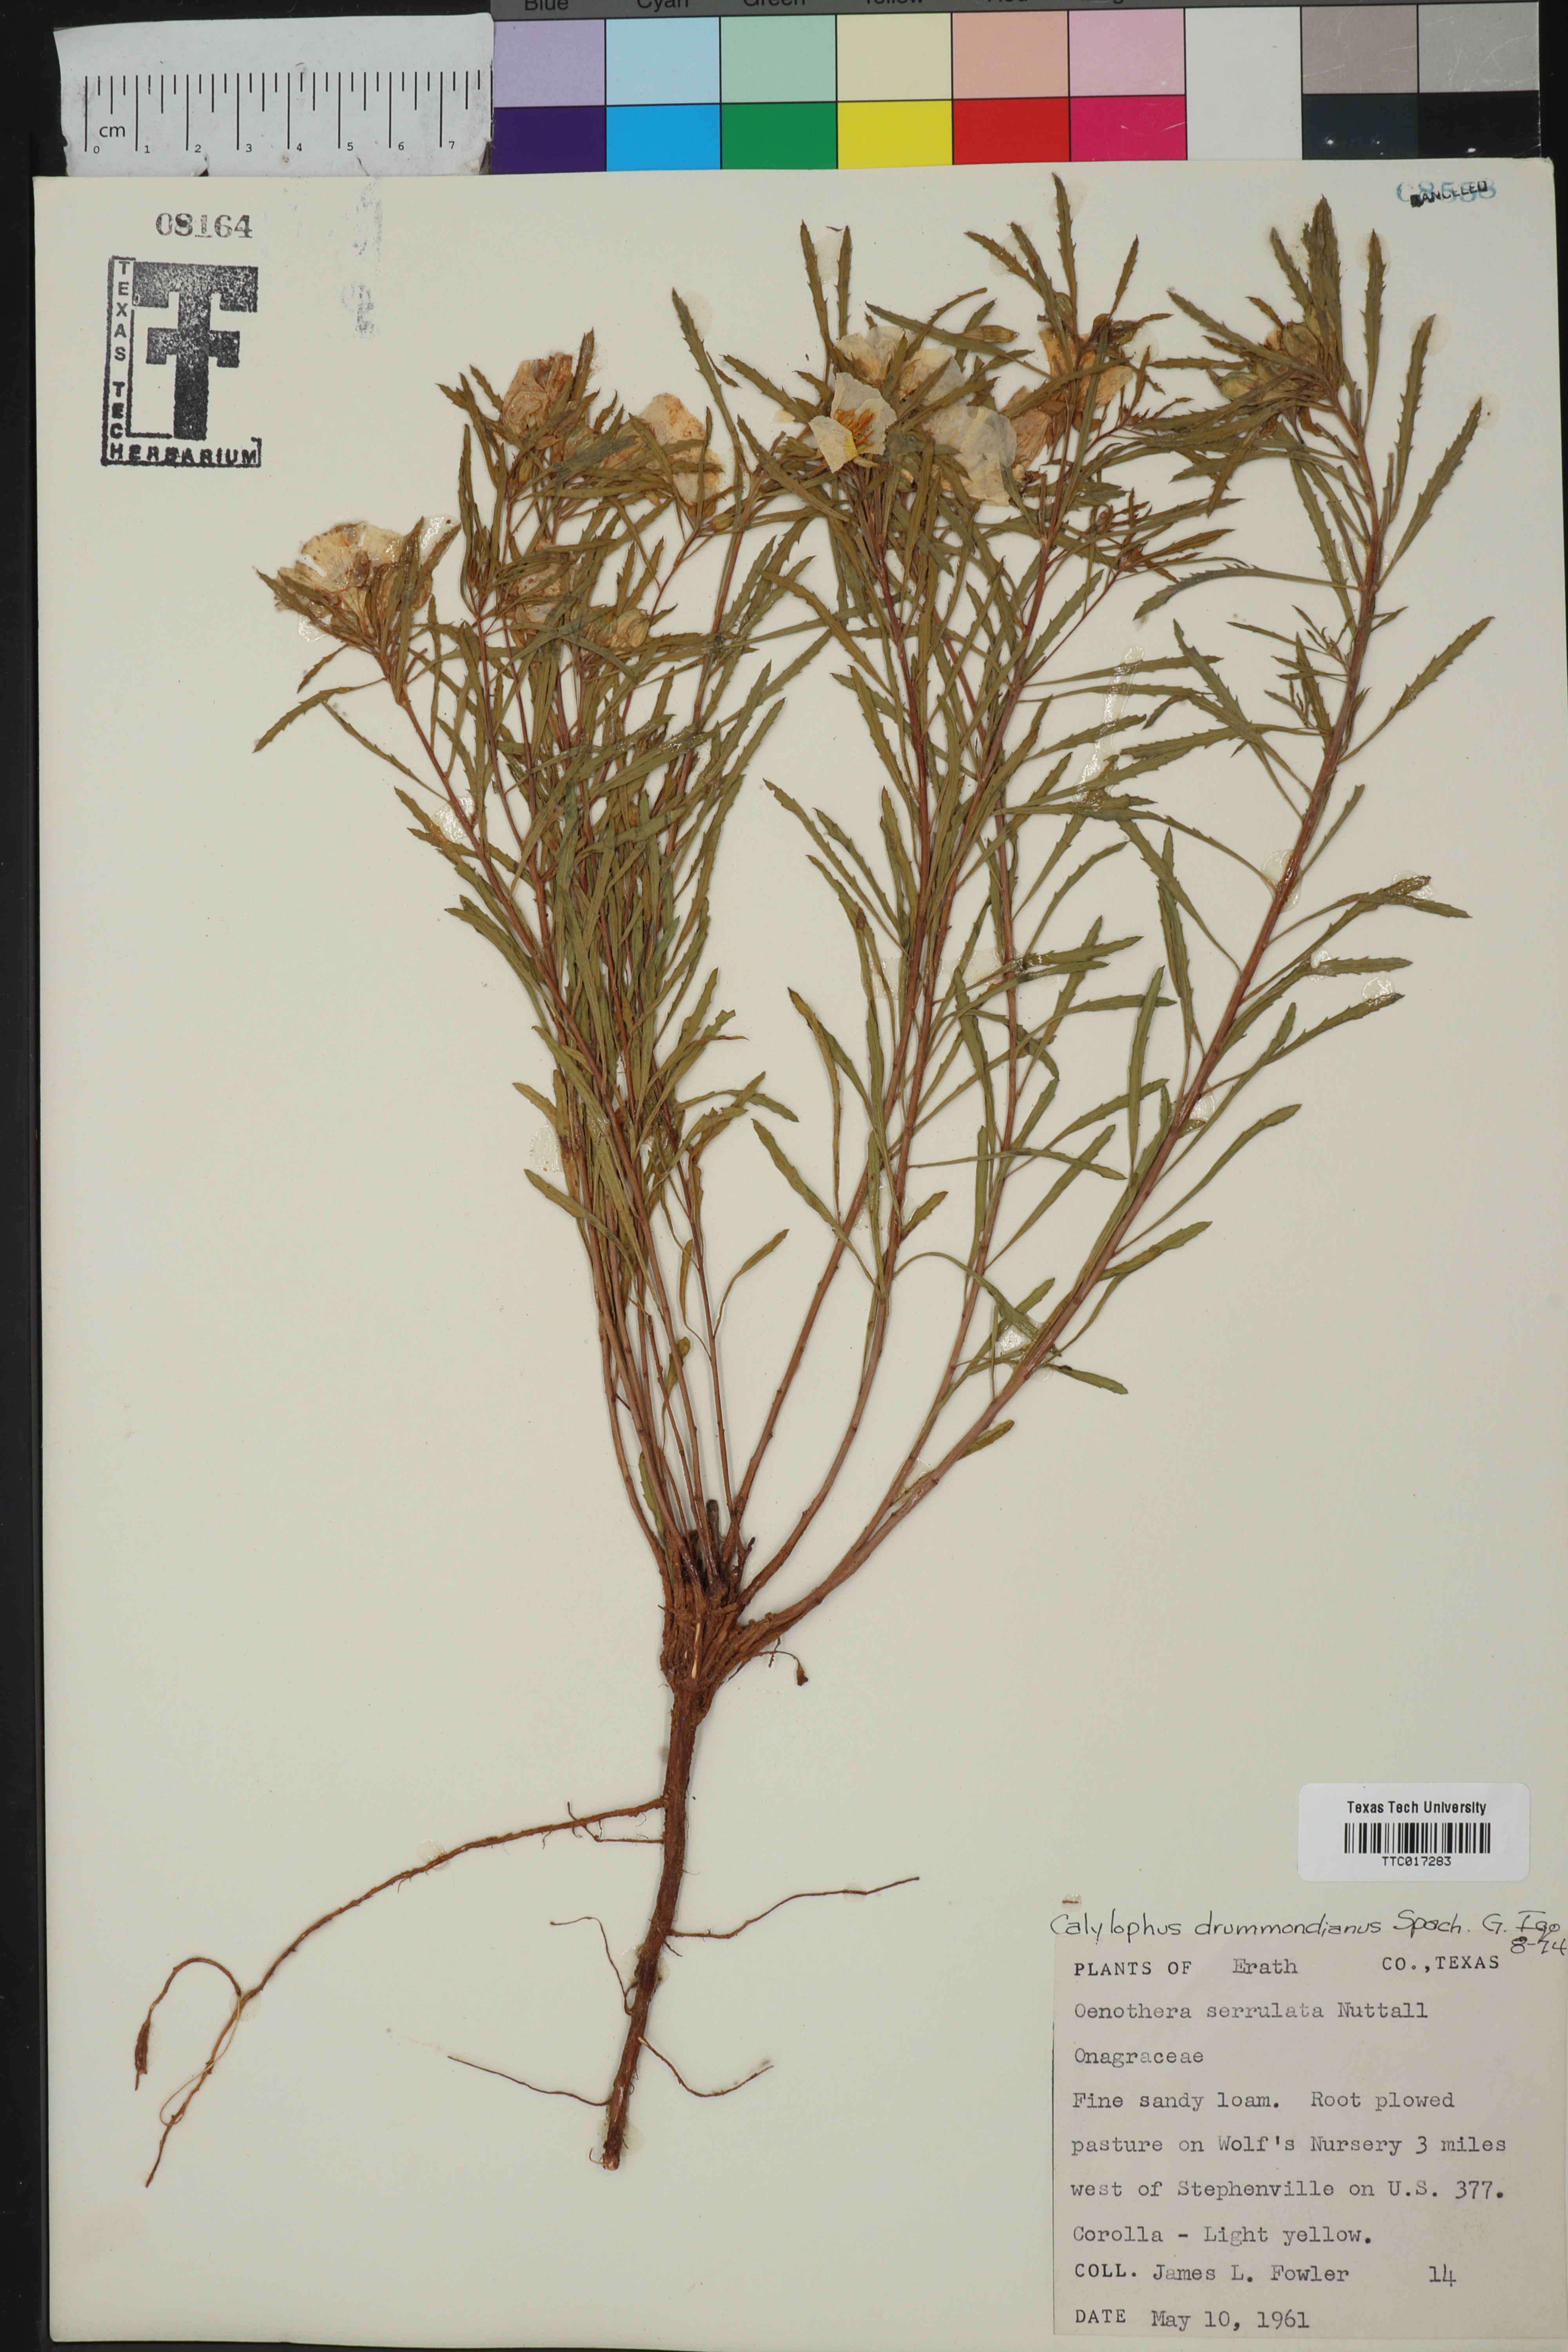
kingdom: Plantae
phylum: Tracheophyta
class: Magnoliopsida
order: Myrtales
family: Onagraceae
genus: Oenothera
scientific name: Oenothera serrulata
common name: Half-shrub calylophus
